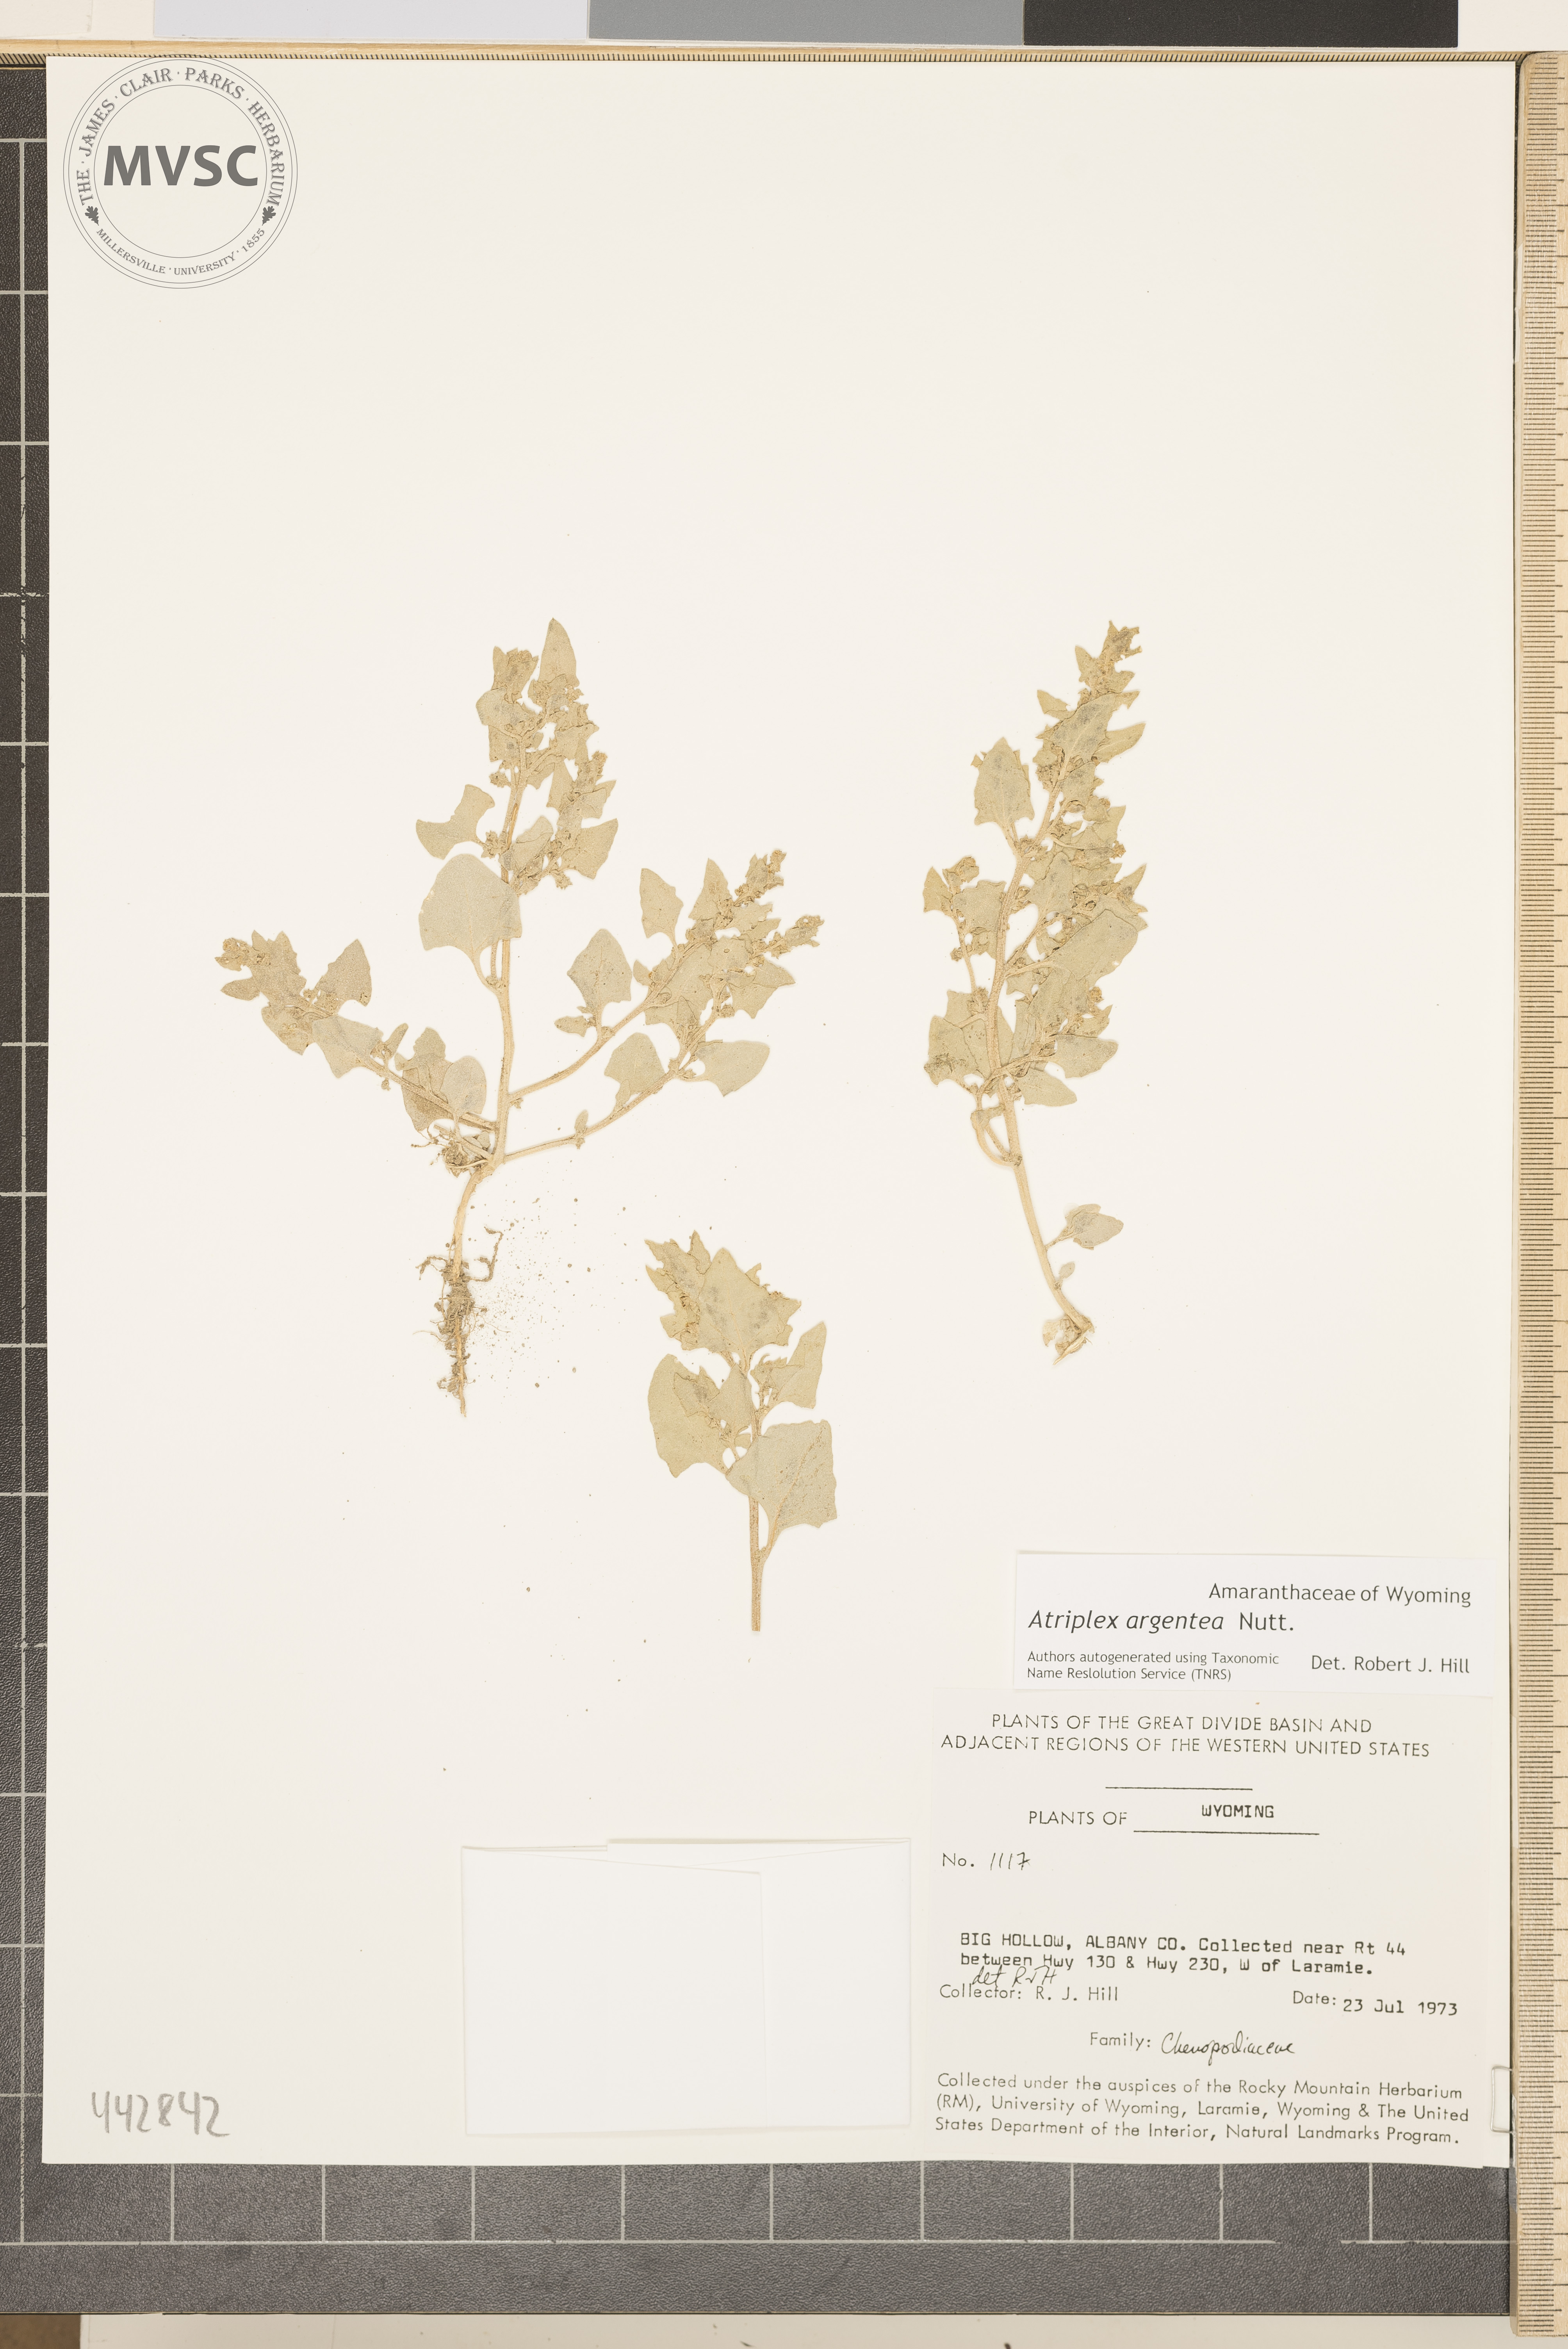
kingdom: Plantae
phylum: Tracheophyta
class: Magnoliopsida
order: Caryophyllales
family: Amaranthaceae
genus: Atriplex
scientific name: Atriplex argentea
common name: Silverscale
